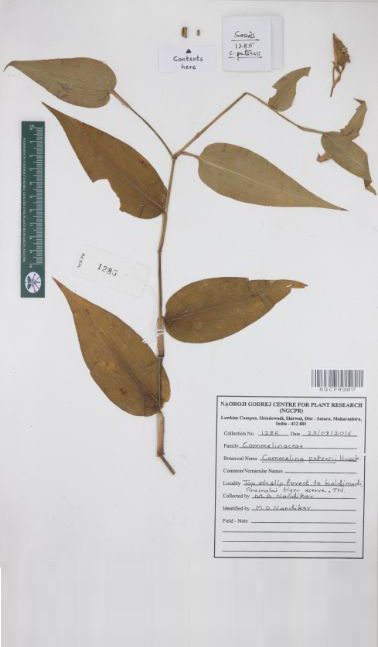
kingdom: Plantae
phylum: Tracheophyta
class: Liliopsida
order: Commelinales
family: Commelinaceae
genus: Commelina
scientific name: Commelina petersii
